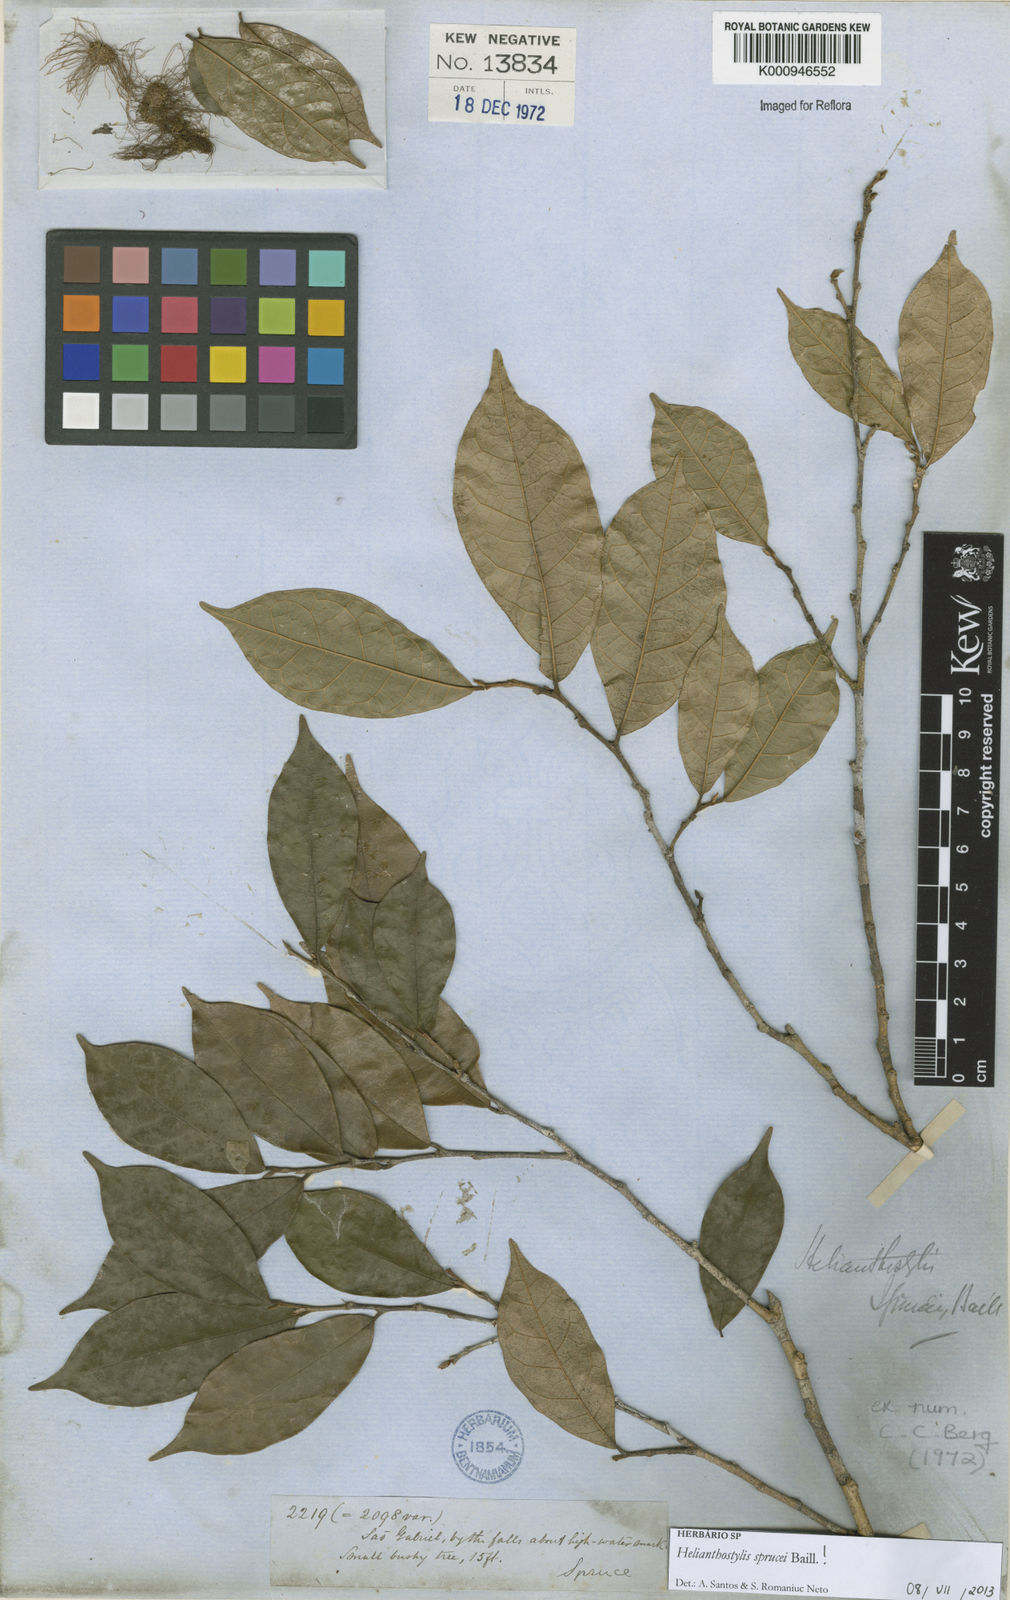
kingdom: Plantae
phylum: Tracheophyta
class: Magnoliopsida
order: Rosales
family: Moraceae
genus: Brosimum
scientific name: Brosimum sprucei
